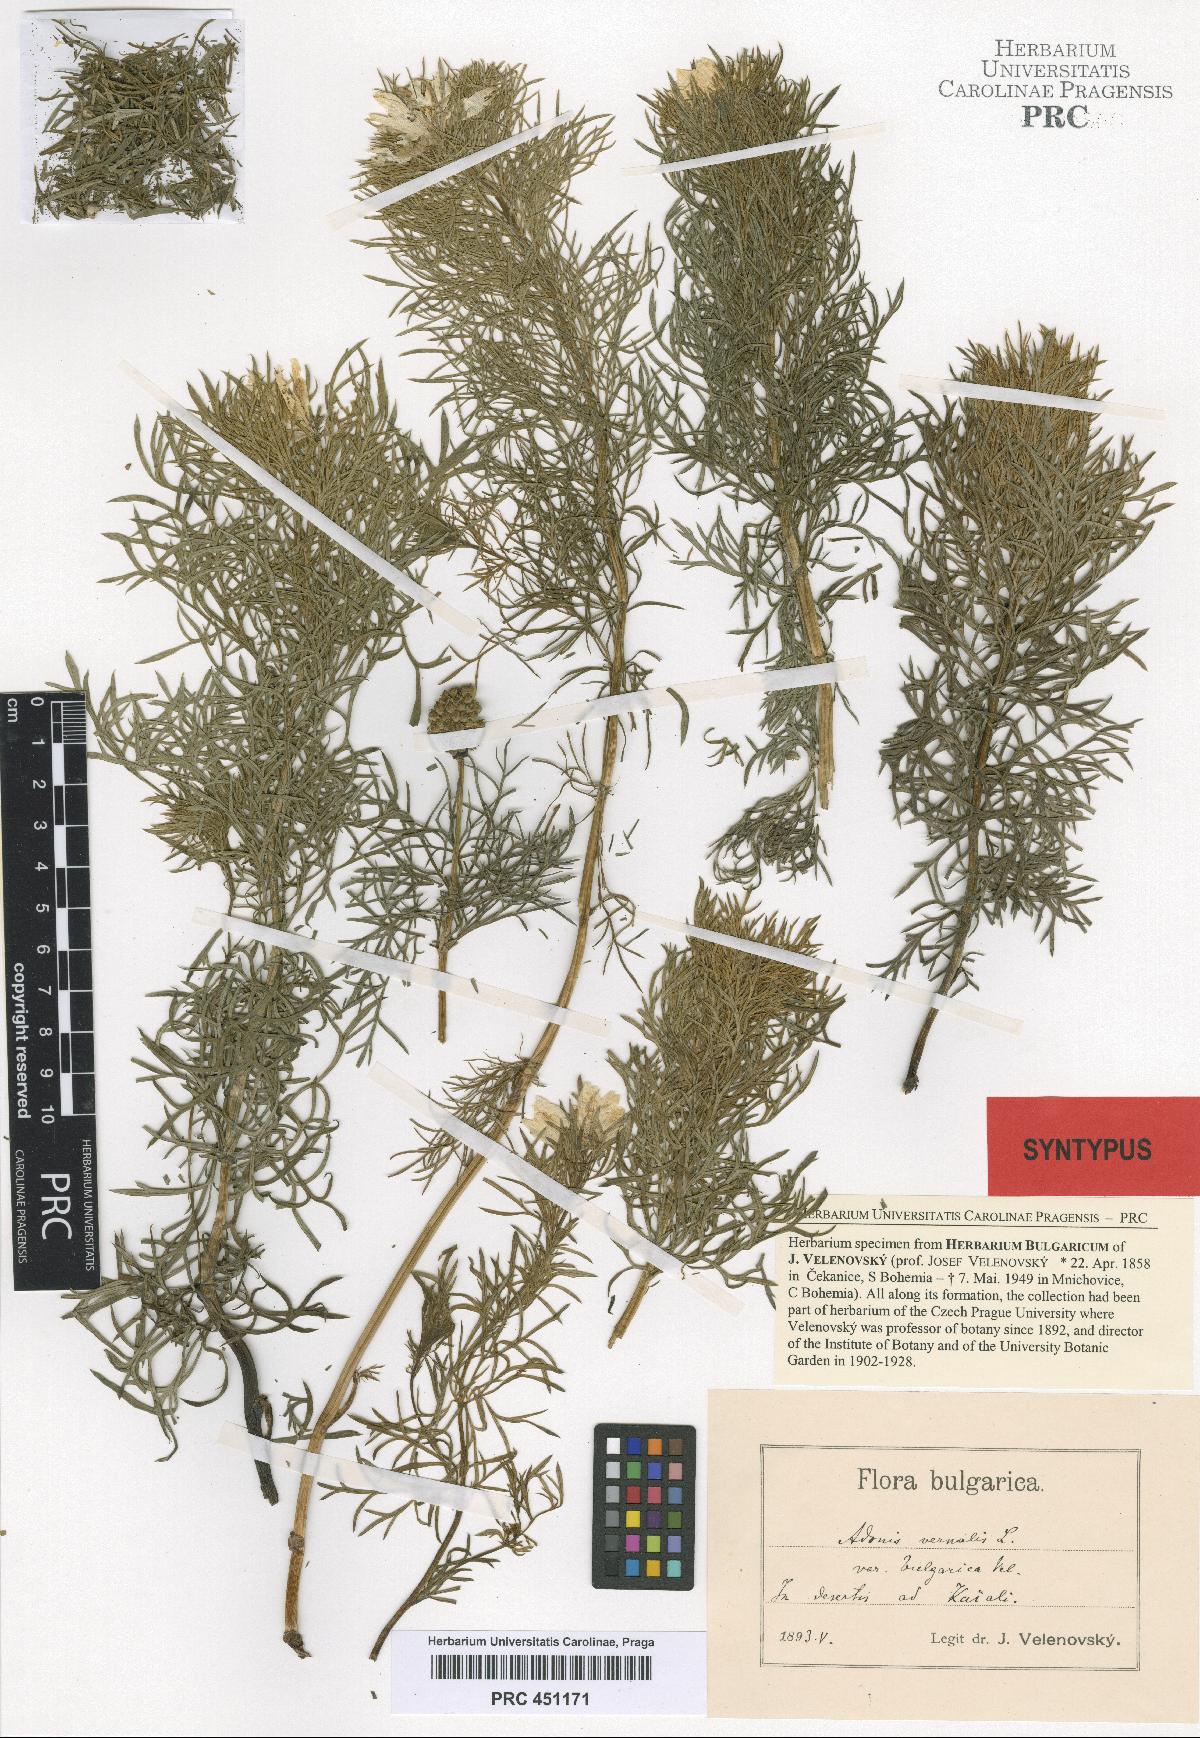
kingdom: Plantae
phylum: Tracheophyta
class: Magnoliopsida
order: Ranunculales
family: Ranunculaceae
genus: Adonis
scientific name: Adonis vernalis
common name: Yellow pheasants-eye
